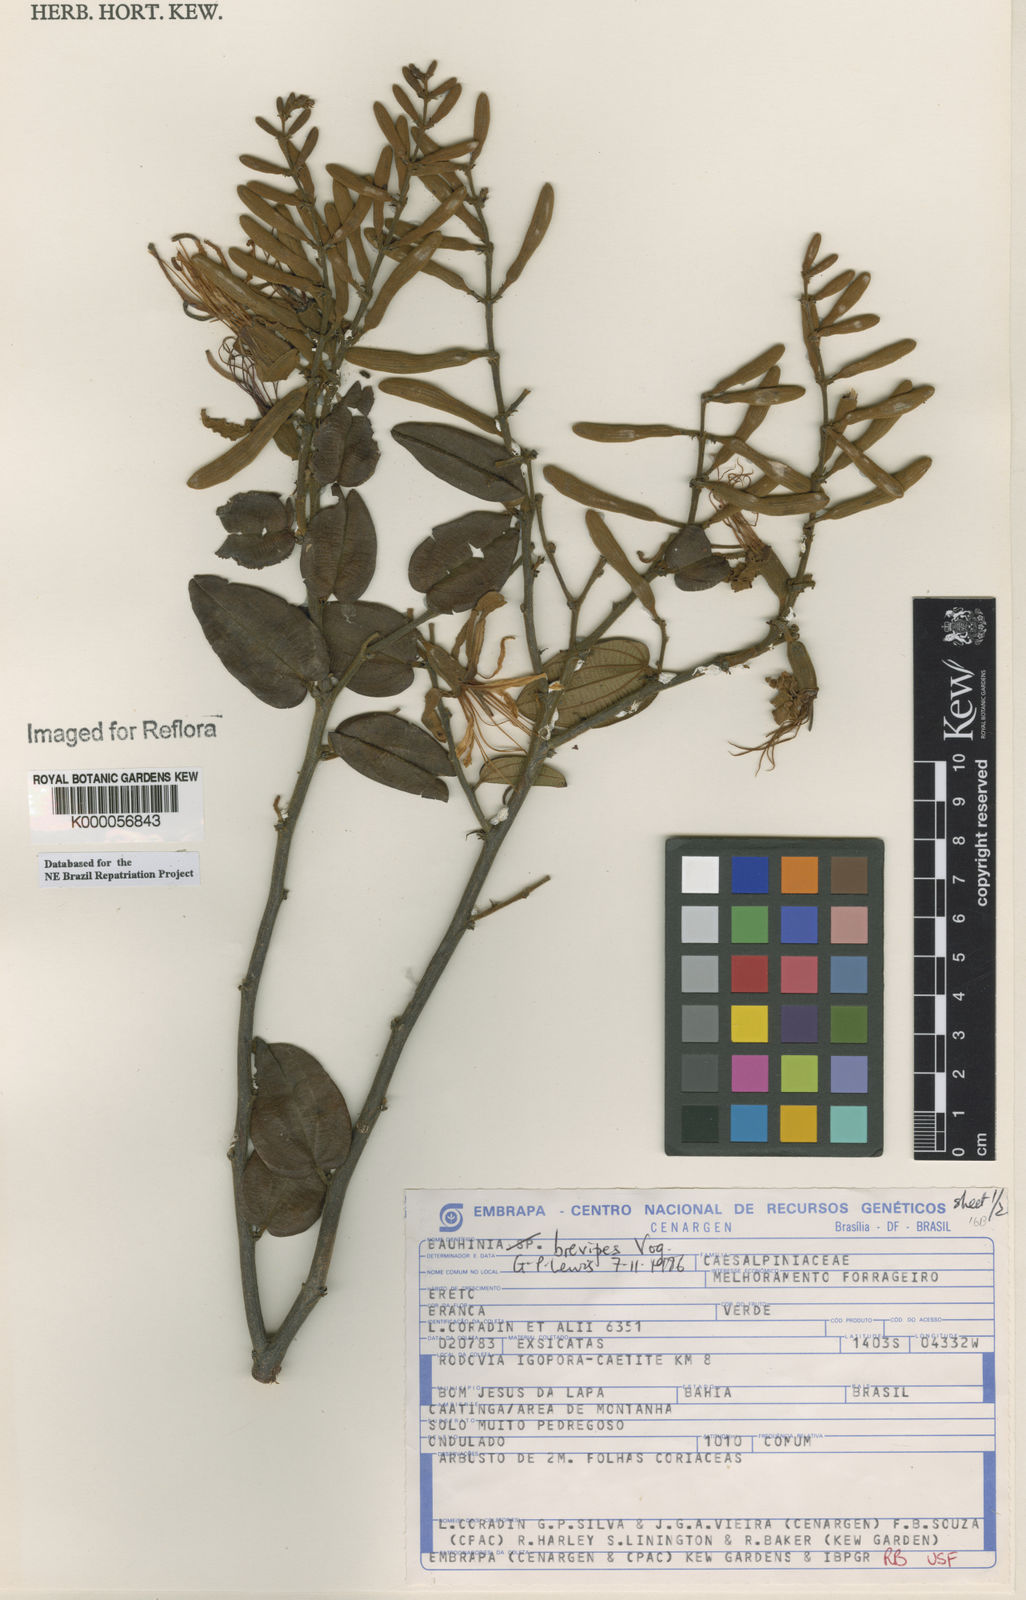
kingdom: Plantae
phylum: Tracheophyta
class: Magnoliopsida
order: Fabales
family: Fabaceae
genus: Bauhinia
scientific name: Bauhinia brevipes
